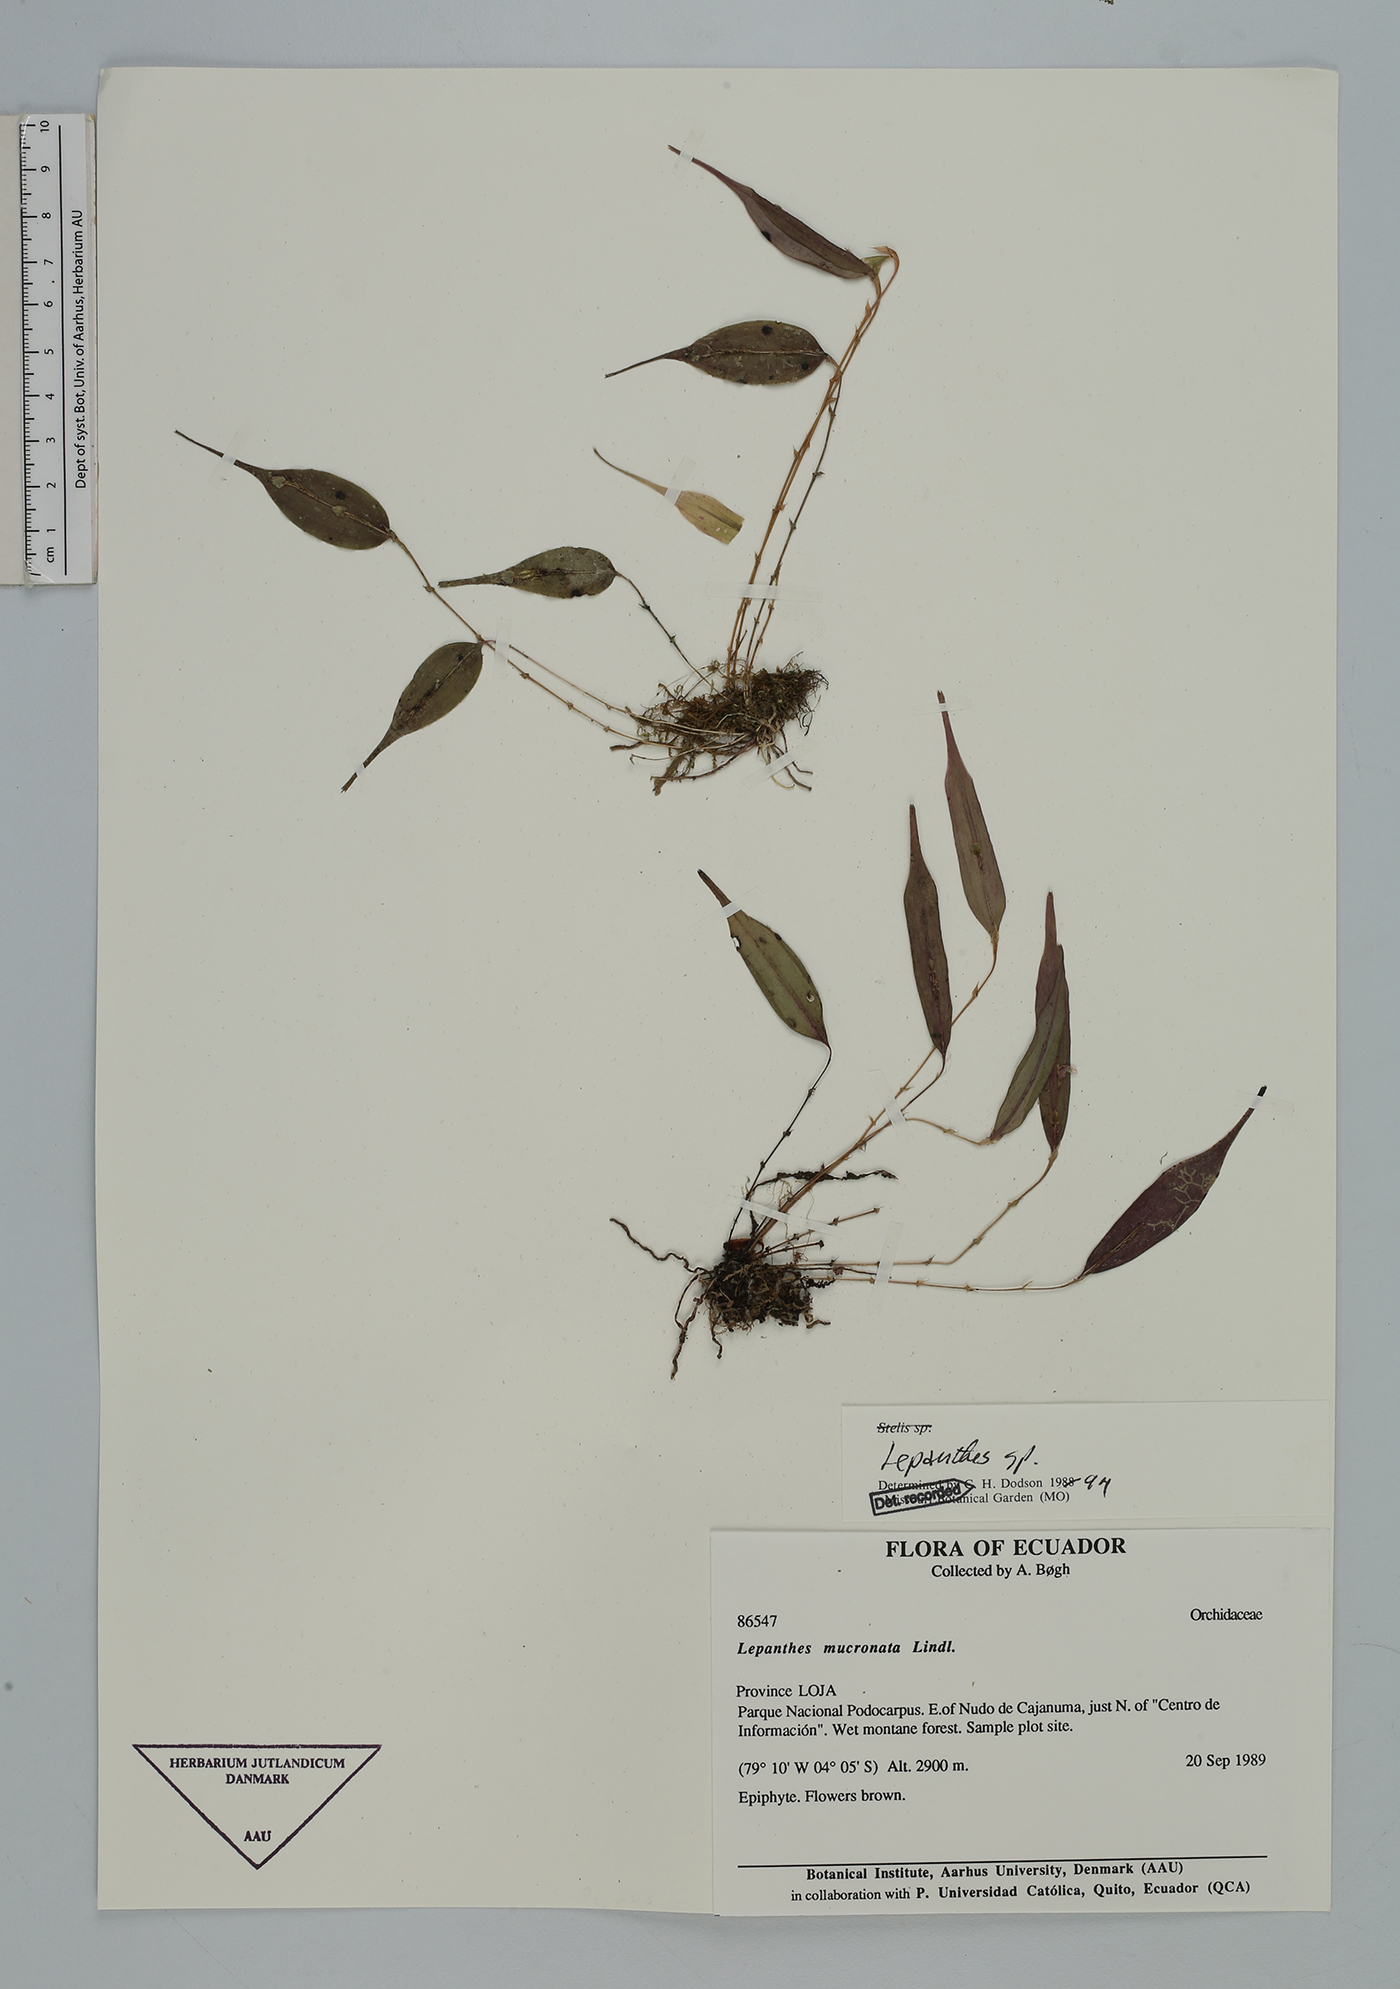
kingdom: Plantae
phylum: Tracheophyta
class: Liliopsida
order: Asparagales
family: Orchidaceae
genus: Lepanthes
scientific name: Lepanthes
